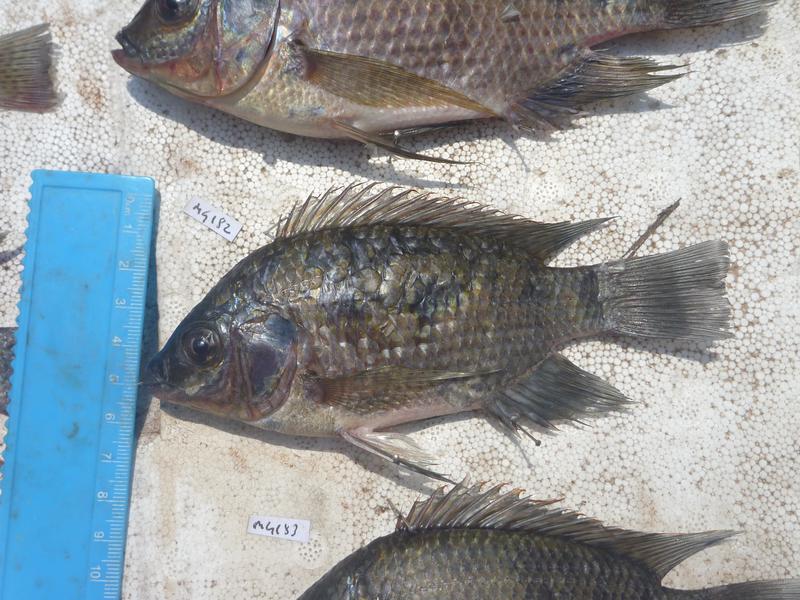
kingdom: Animalia
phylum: Chordata
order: Perciformes
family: Cichlidae
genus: Oreochromis
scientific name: Oreochromis upembae
